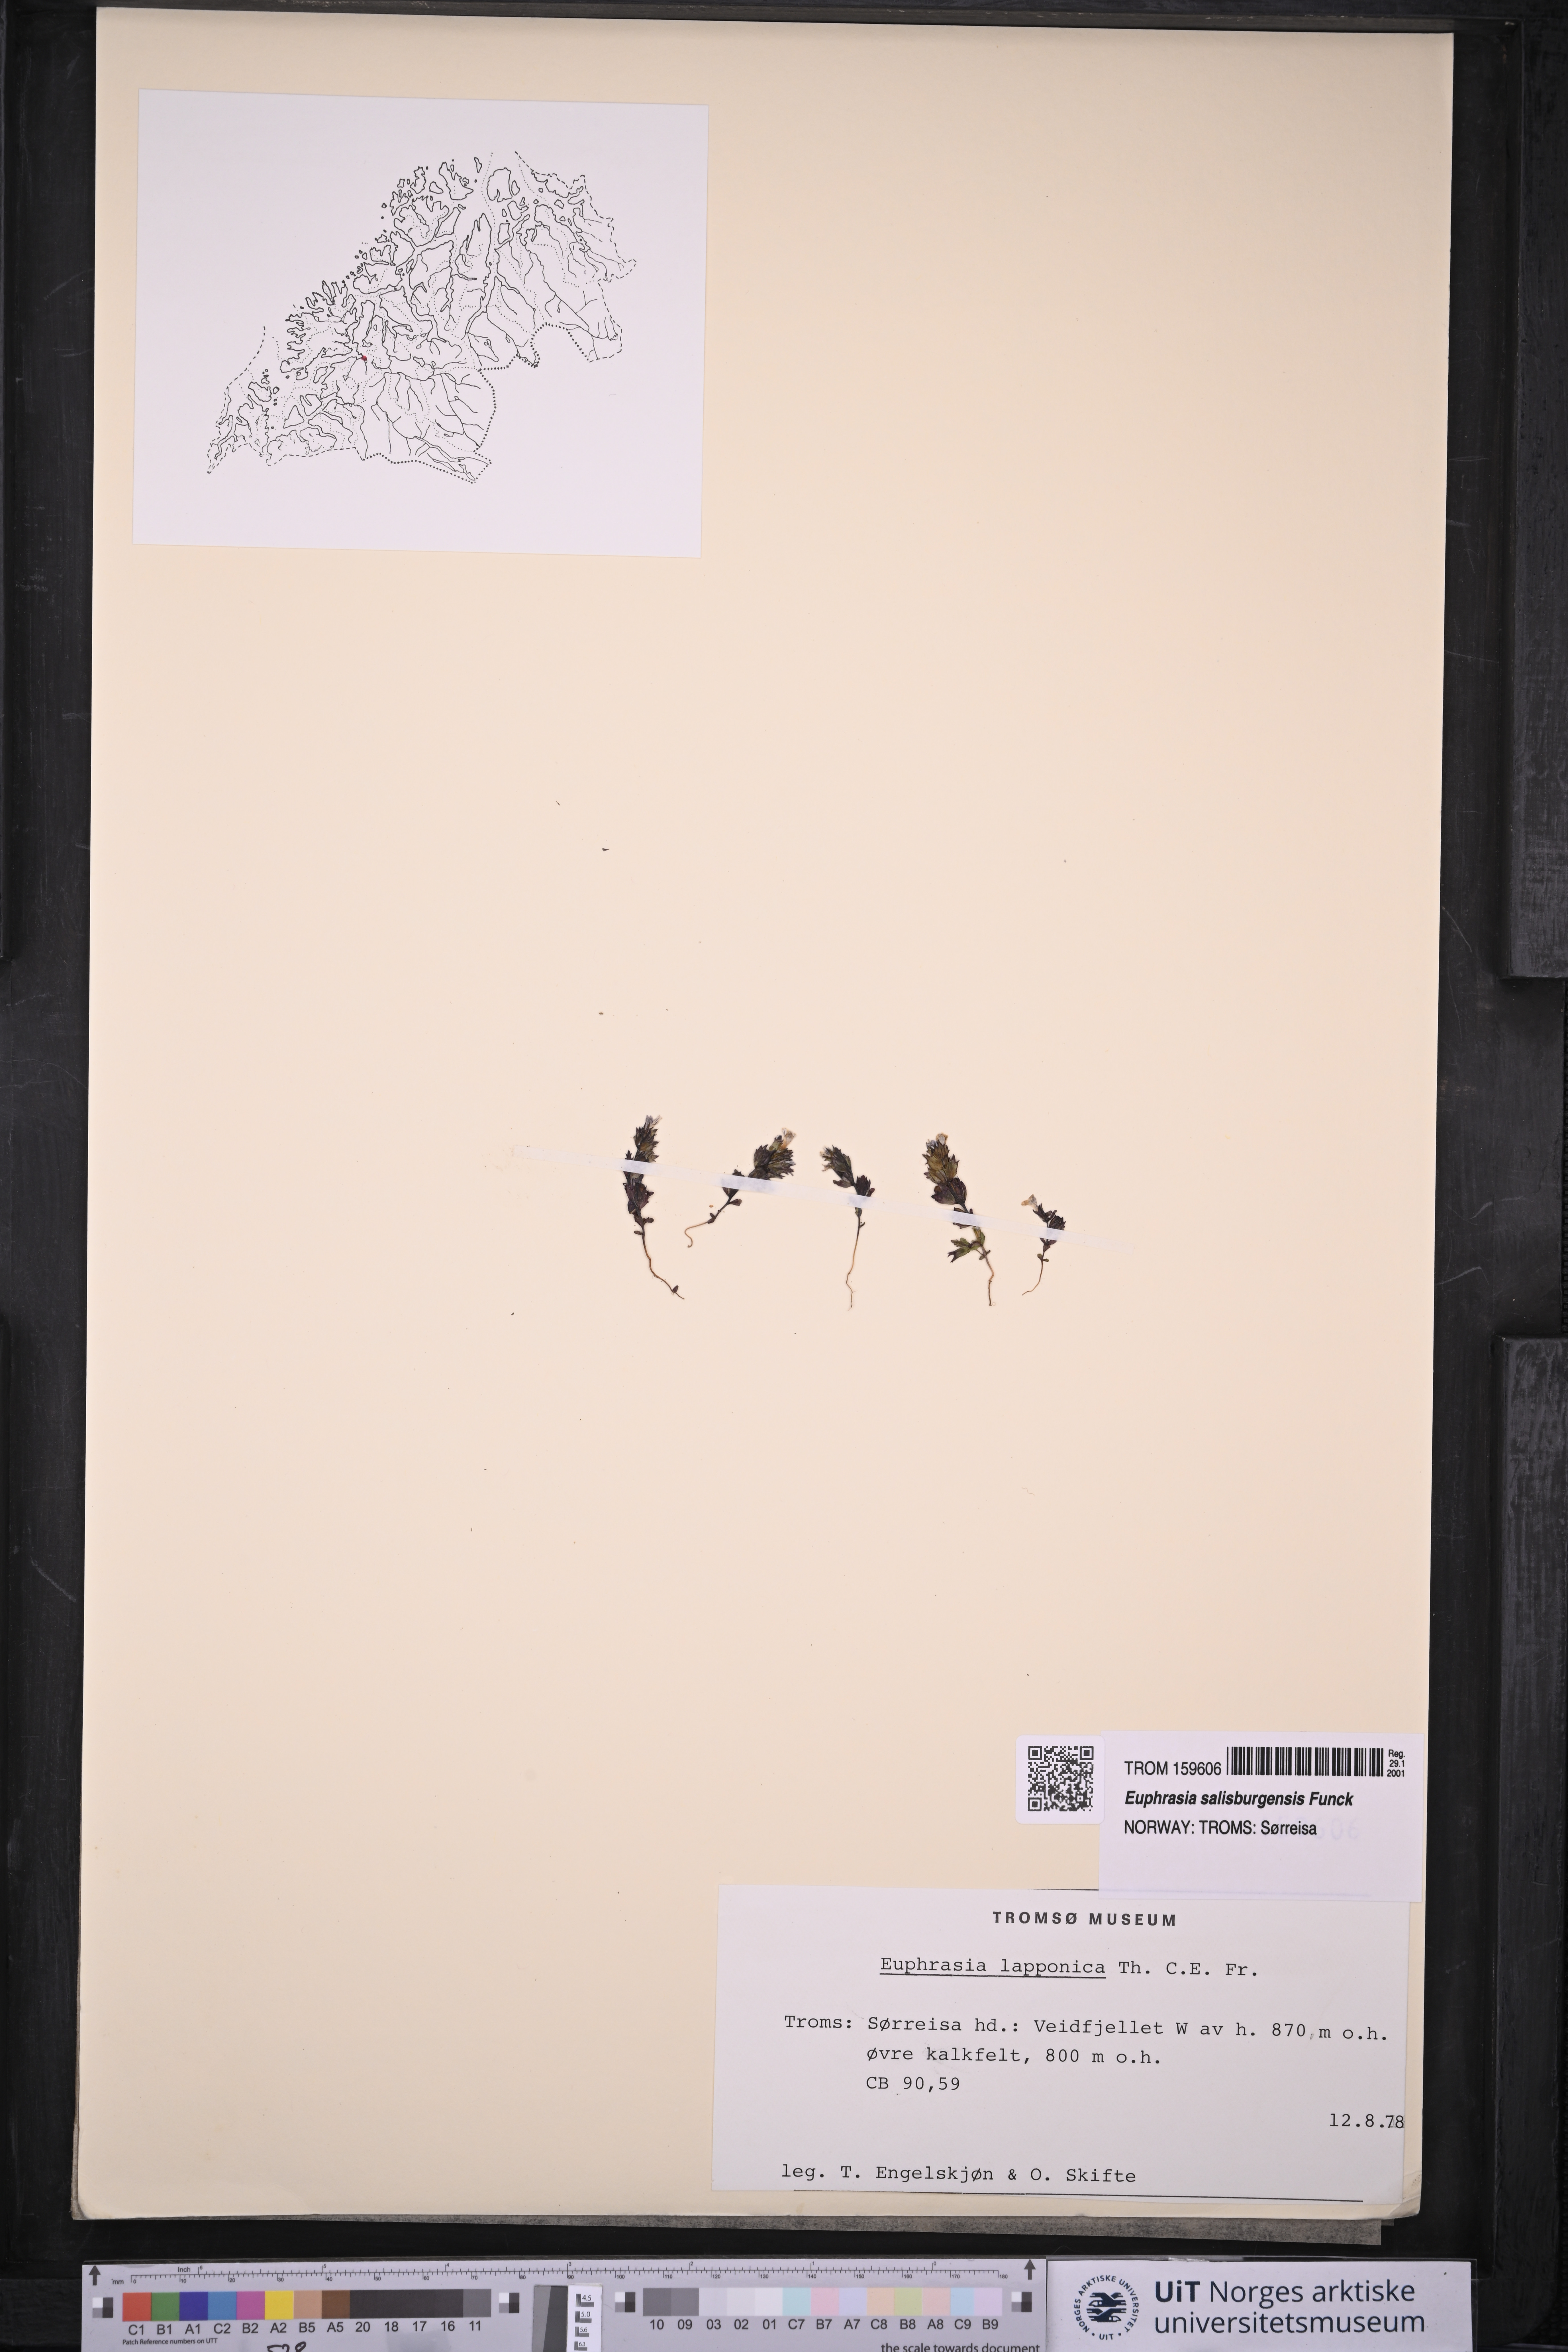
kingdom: Plantae
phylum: Tracheophyta
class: Magnoliopsida
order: Lamiales
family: Orobanchaceae
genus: Euphrasia
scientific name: Euphrasia salisburgensis
